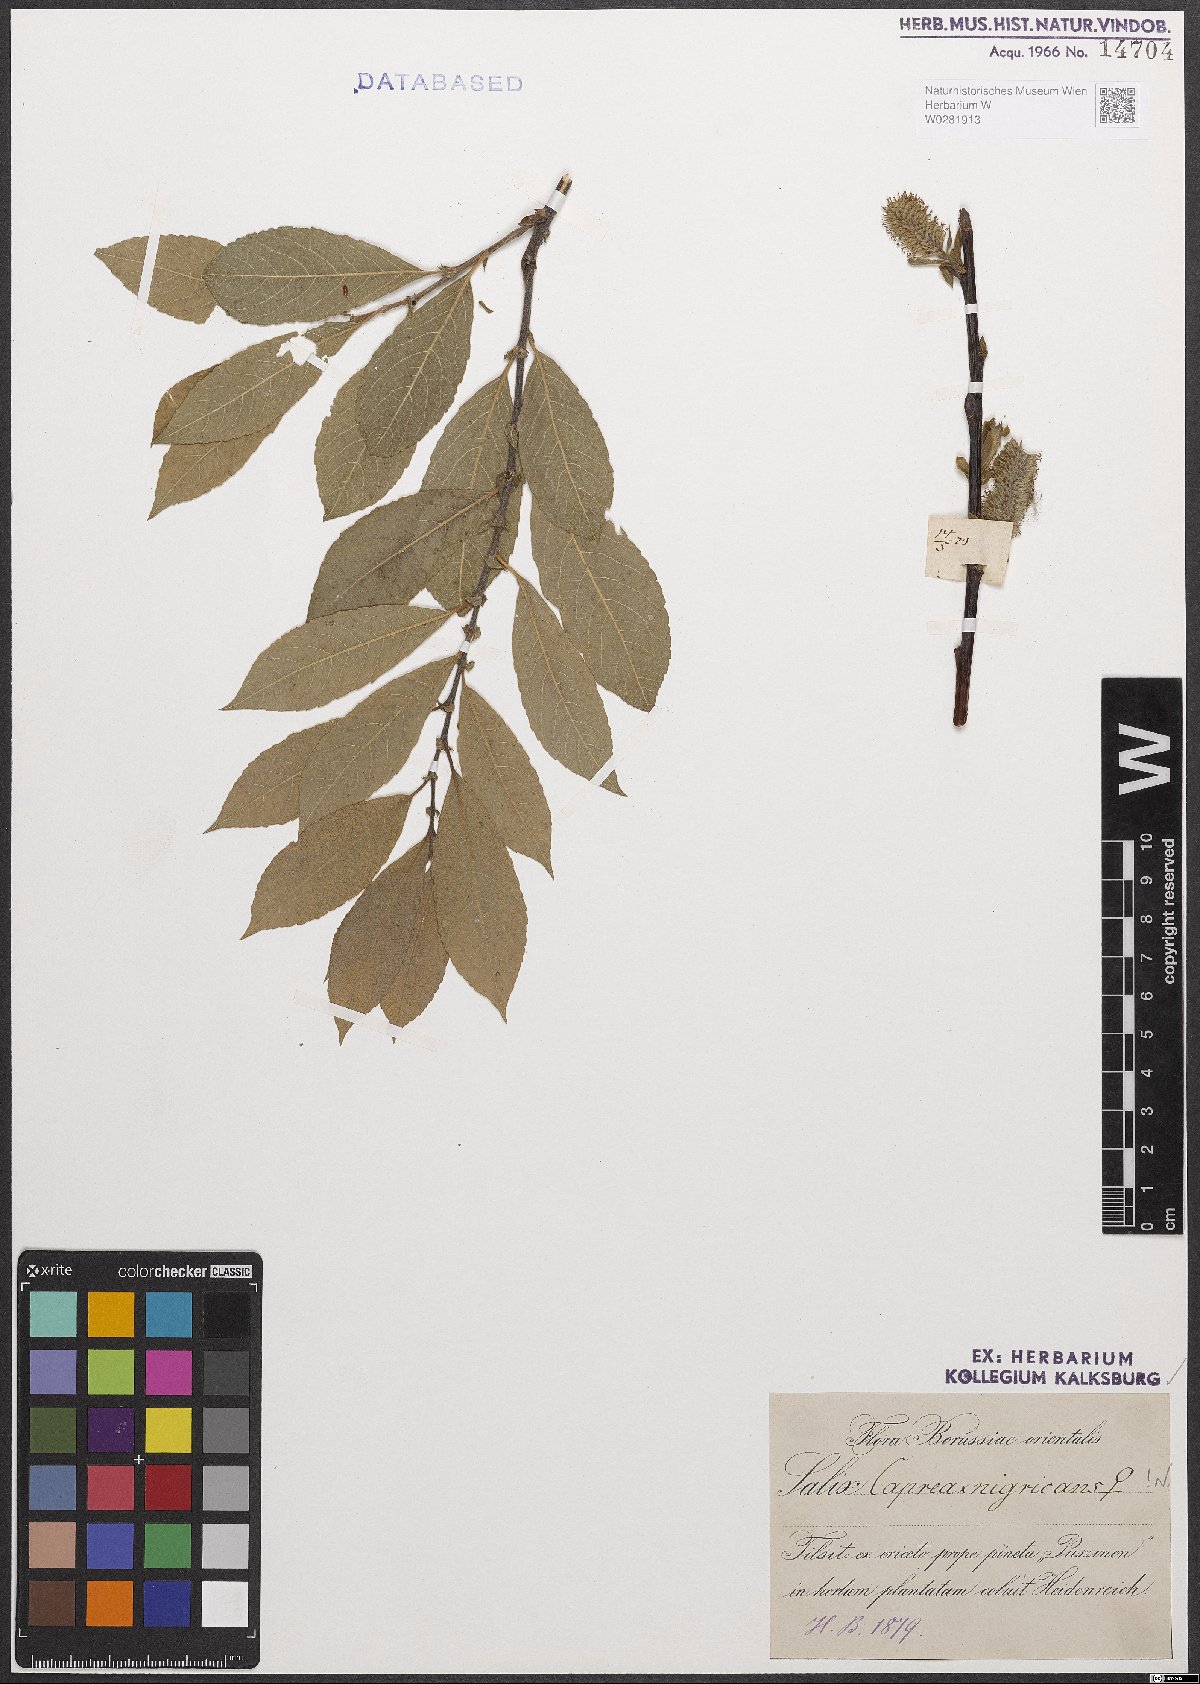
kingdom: Plantae
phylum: Tracheophyta
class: Magnoliopsida
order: Malpighiales
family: Salicaceae
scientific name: Salicaceae
